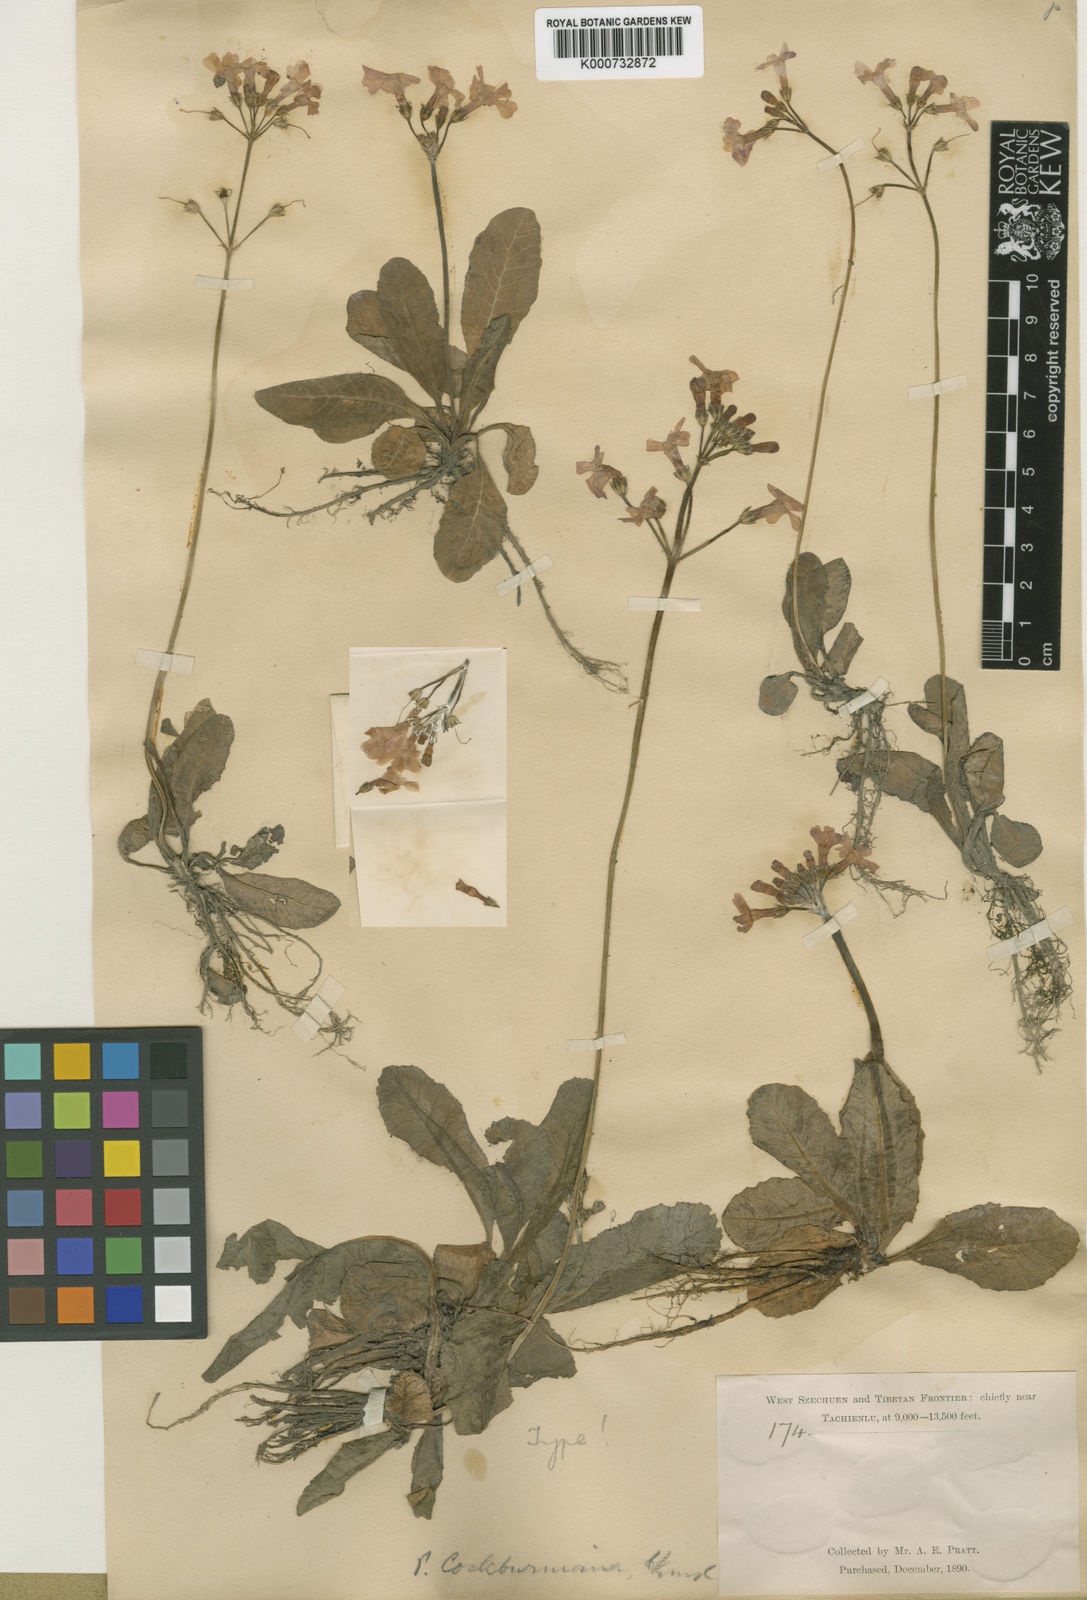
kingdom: Plantae
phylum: Tracheophyta
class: Magnoliopsida
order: Ericales
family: Primulaceae
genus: Primula
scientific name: Primula cockburniana
